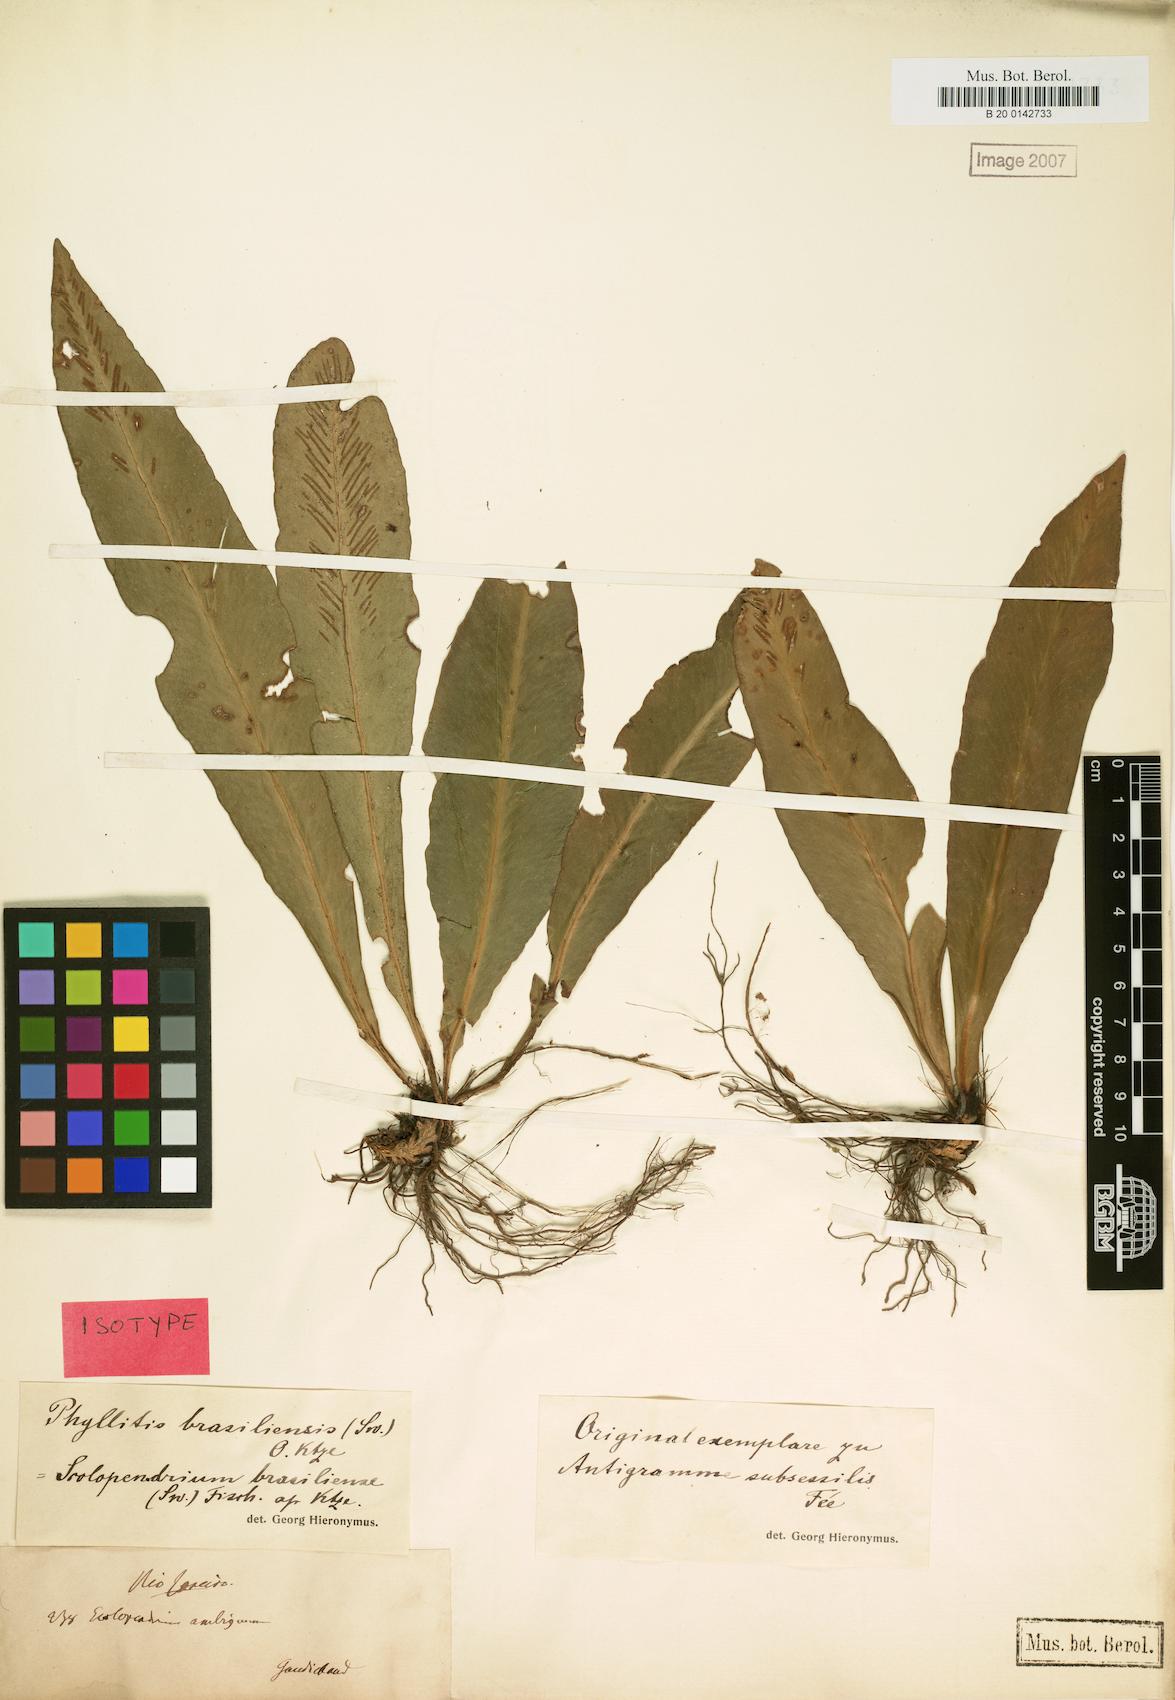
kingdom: Plantae
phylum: Tracheophyta
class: Polypodiopsida
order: Polypodiales
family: Aspleniaceae
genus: Asplenium
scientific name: Asplenium brasiliense
